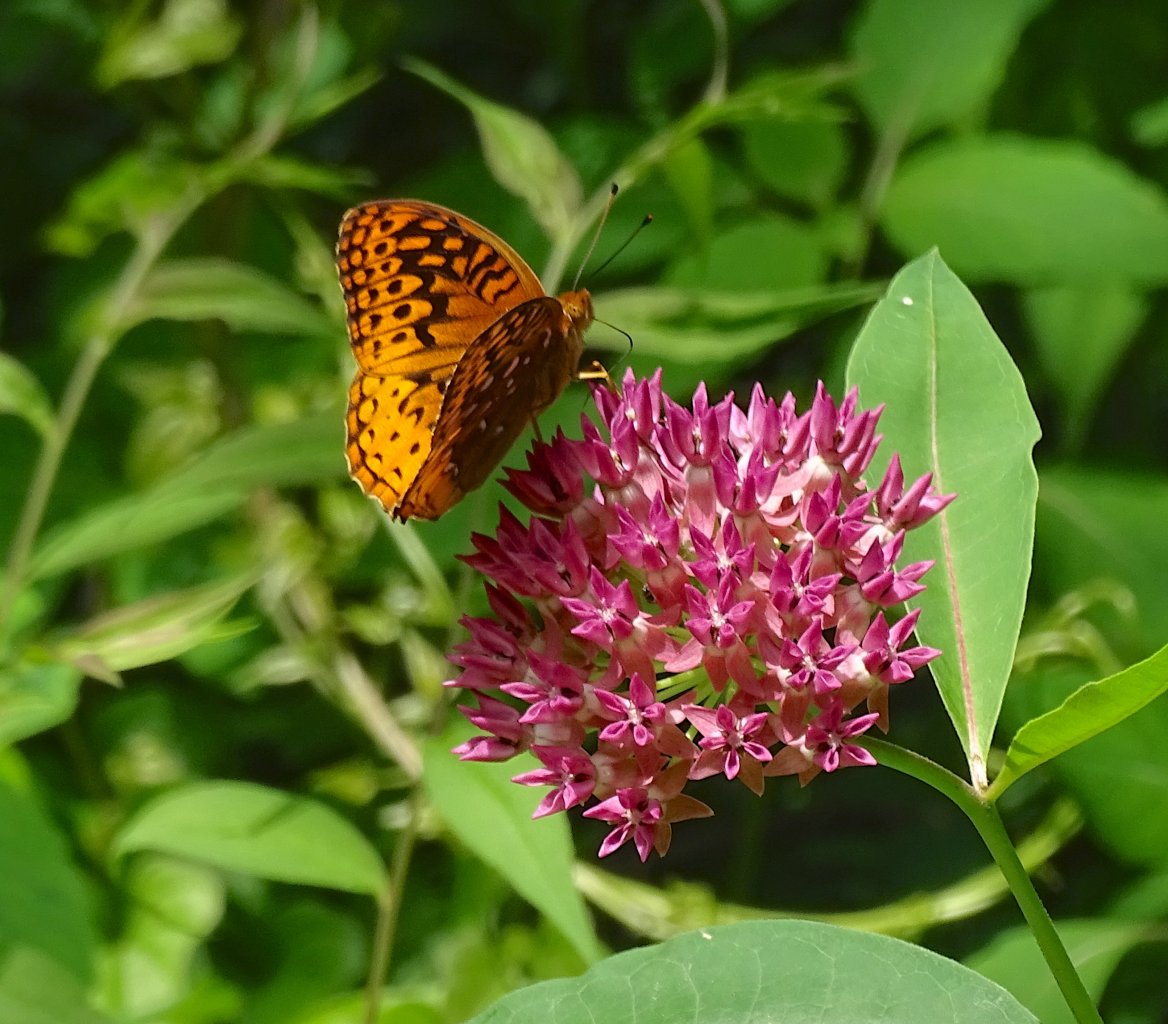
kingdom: Animalia
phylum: Arthropoda
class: Insecta
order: Lepidoptera
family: Nymphalidae
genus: Speyeria
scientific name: Speyeria cybele
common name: Great Spangled Fritillary
